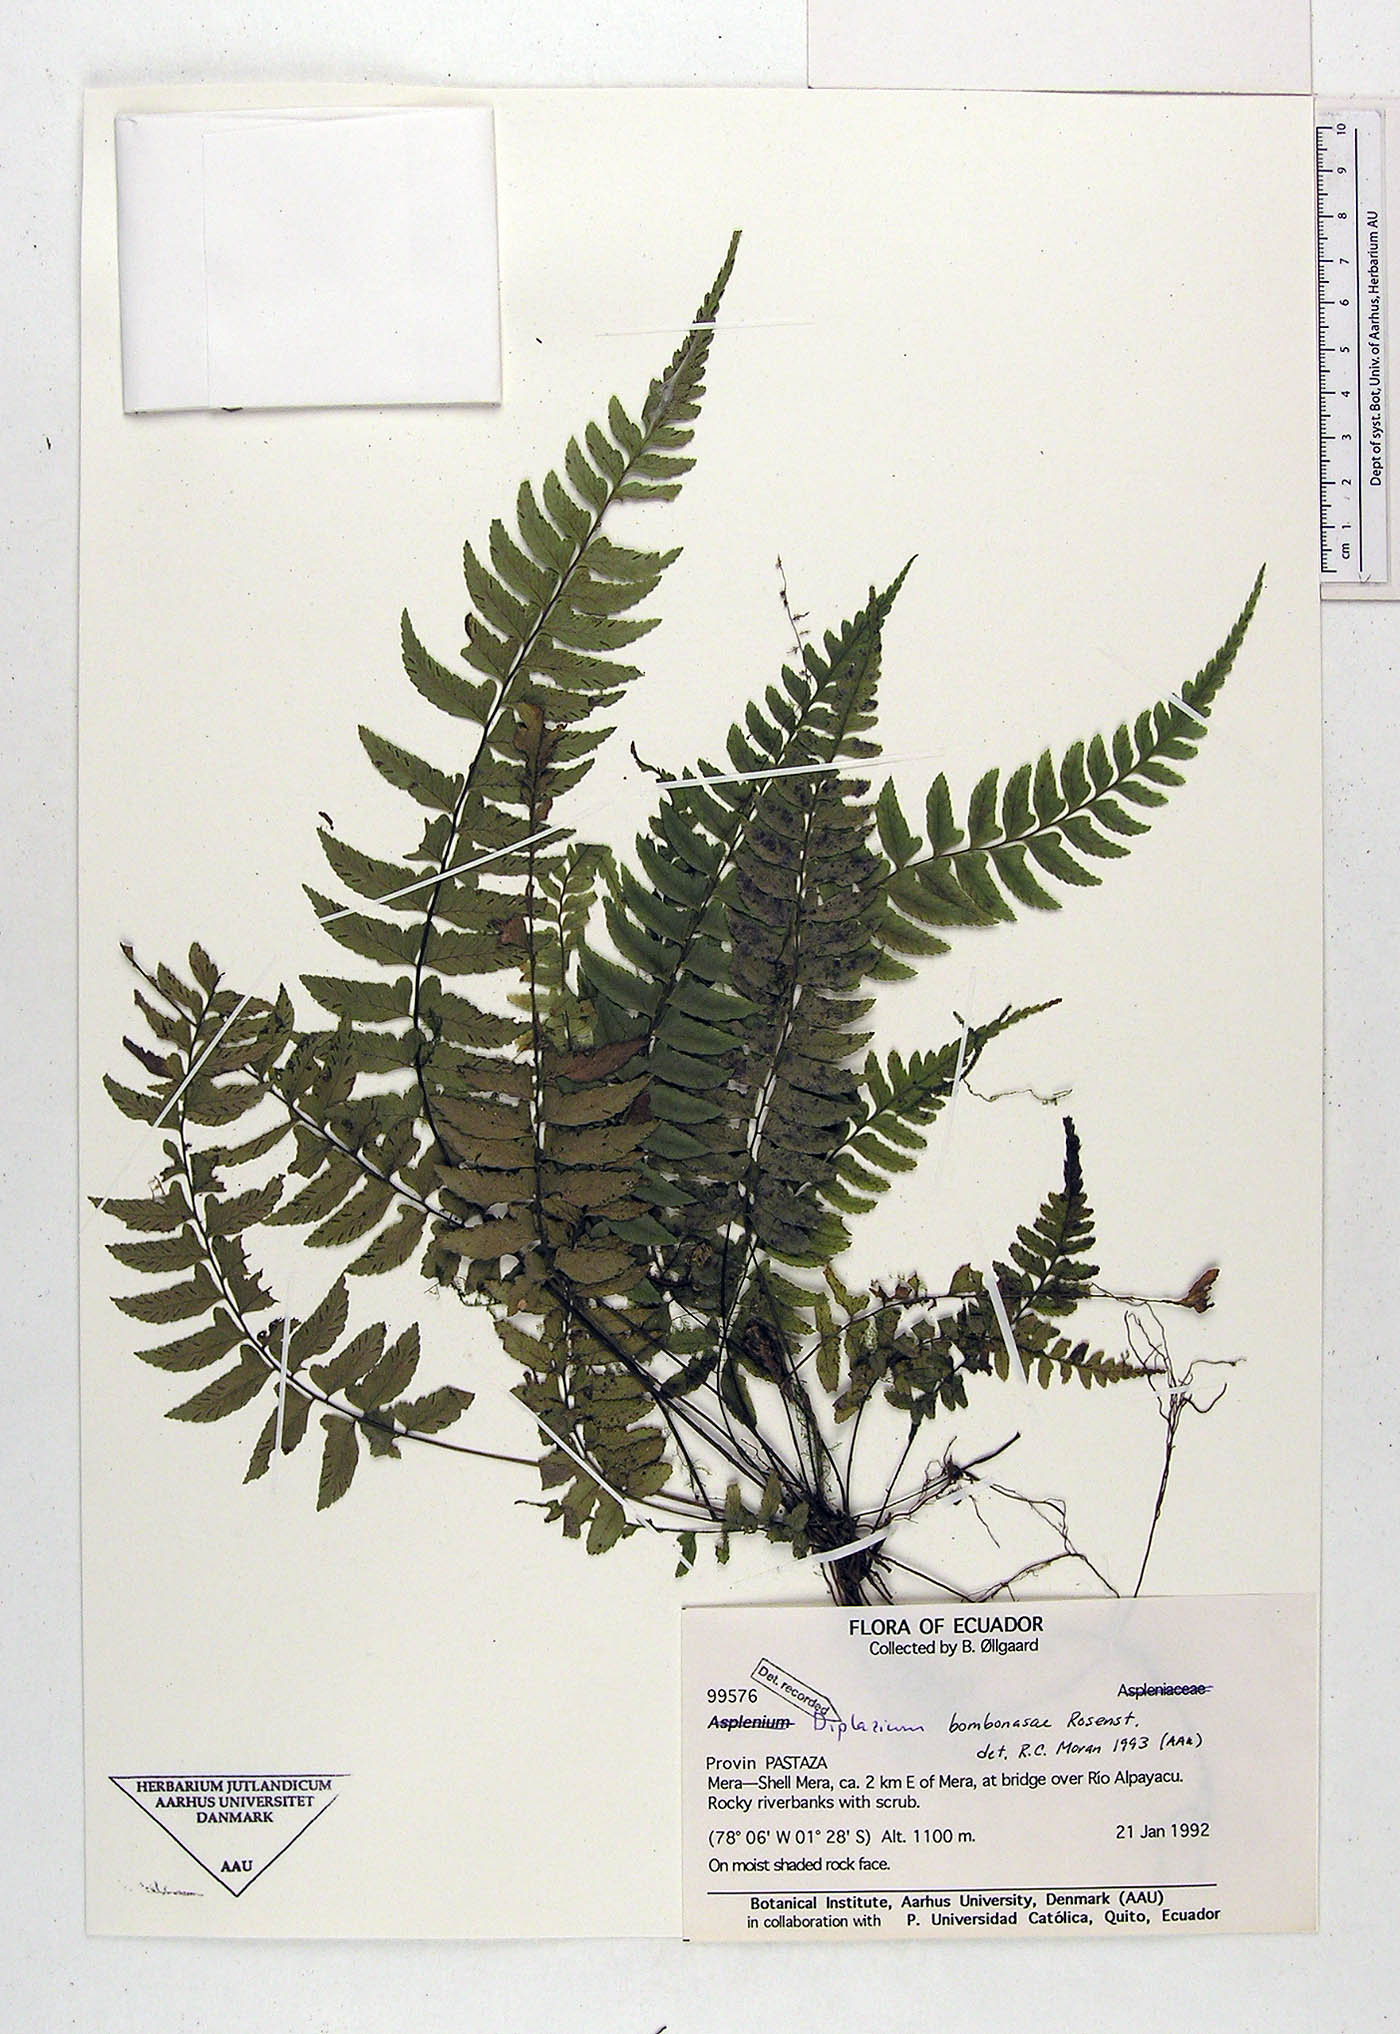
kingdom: Plantae
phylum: Tracheophyta
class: Polypodiopsida
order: Polypodiales
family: Athyriaceae
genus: Diplazium
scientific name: Diplazium bombonasae
